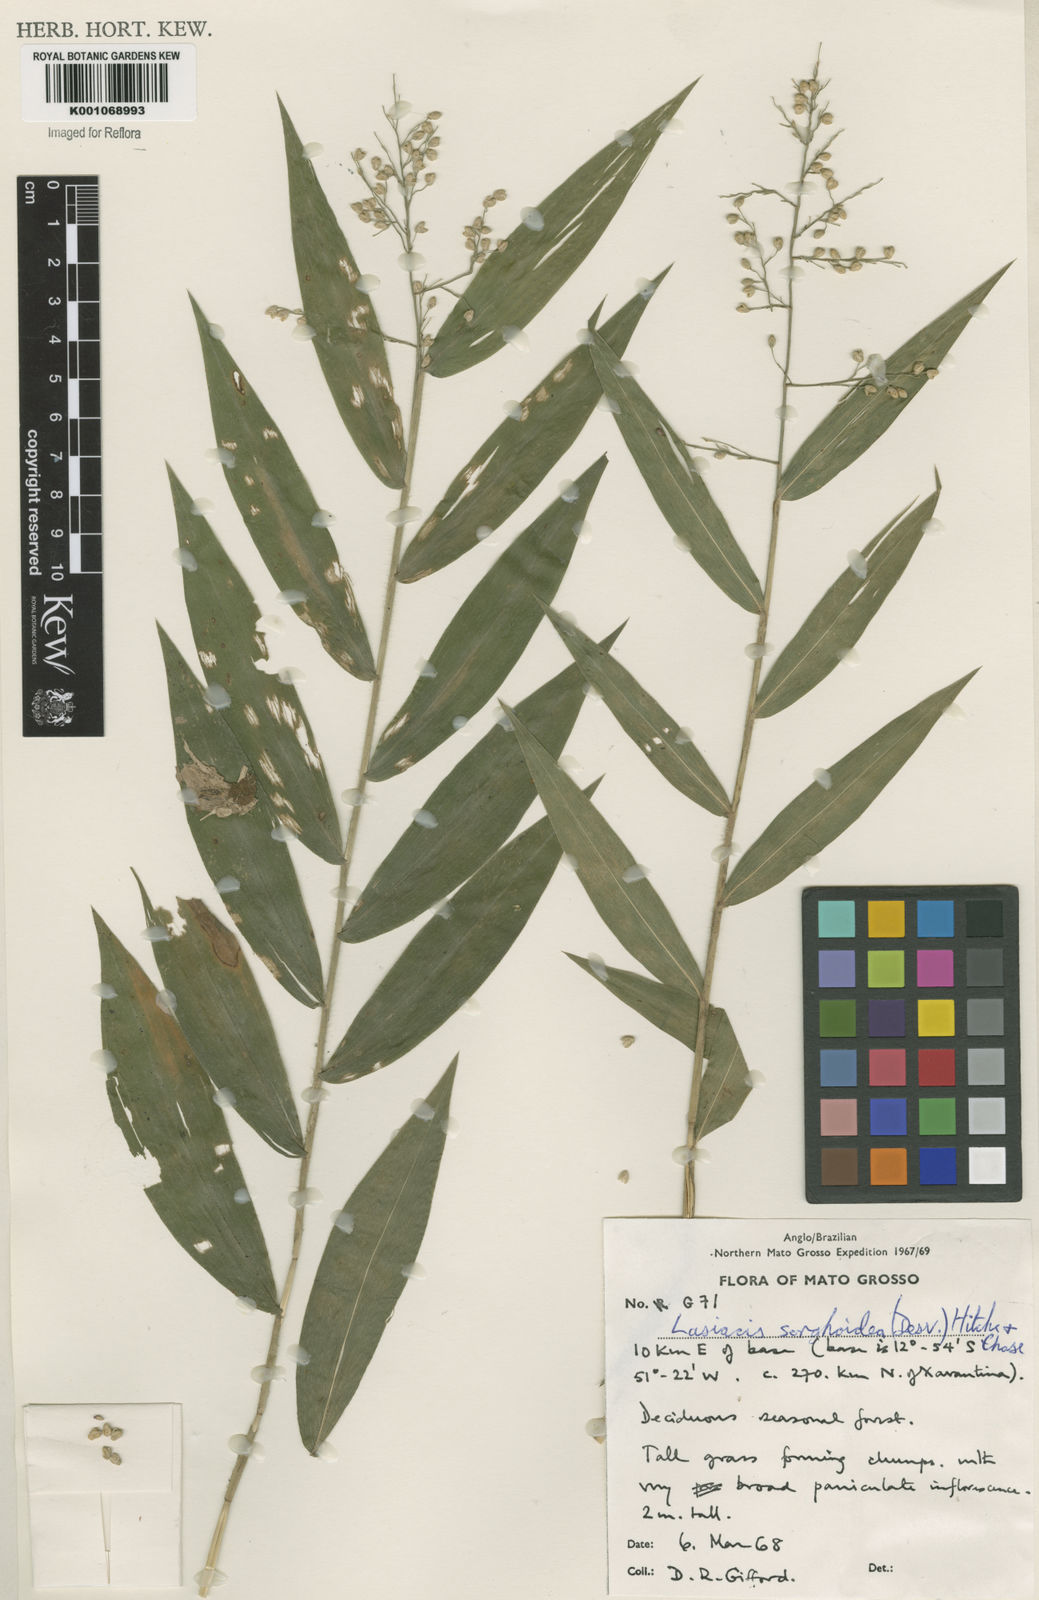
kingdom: Plantae
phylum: Tracheophyta
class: Liliopsida
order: Poales
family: Poaceae
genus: Lasiacis
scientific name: Lasiacis maculata
